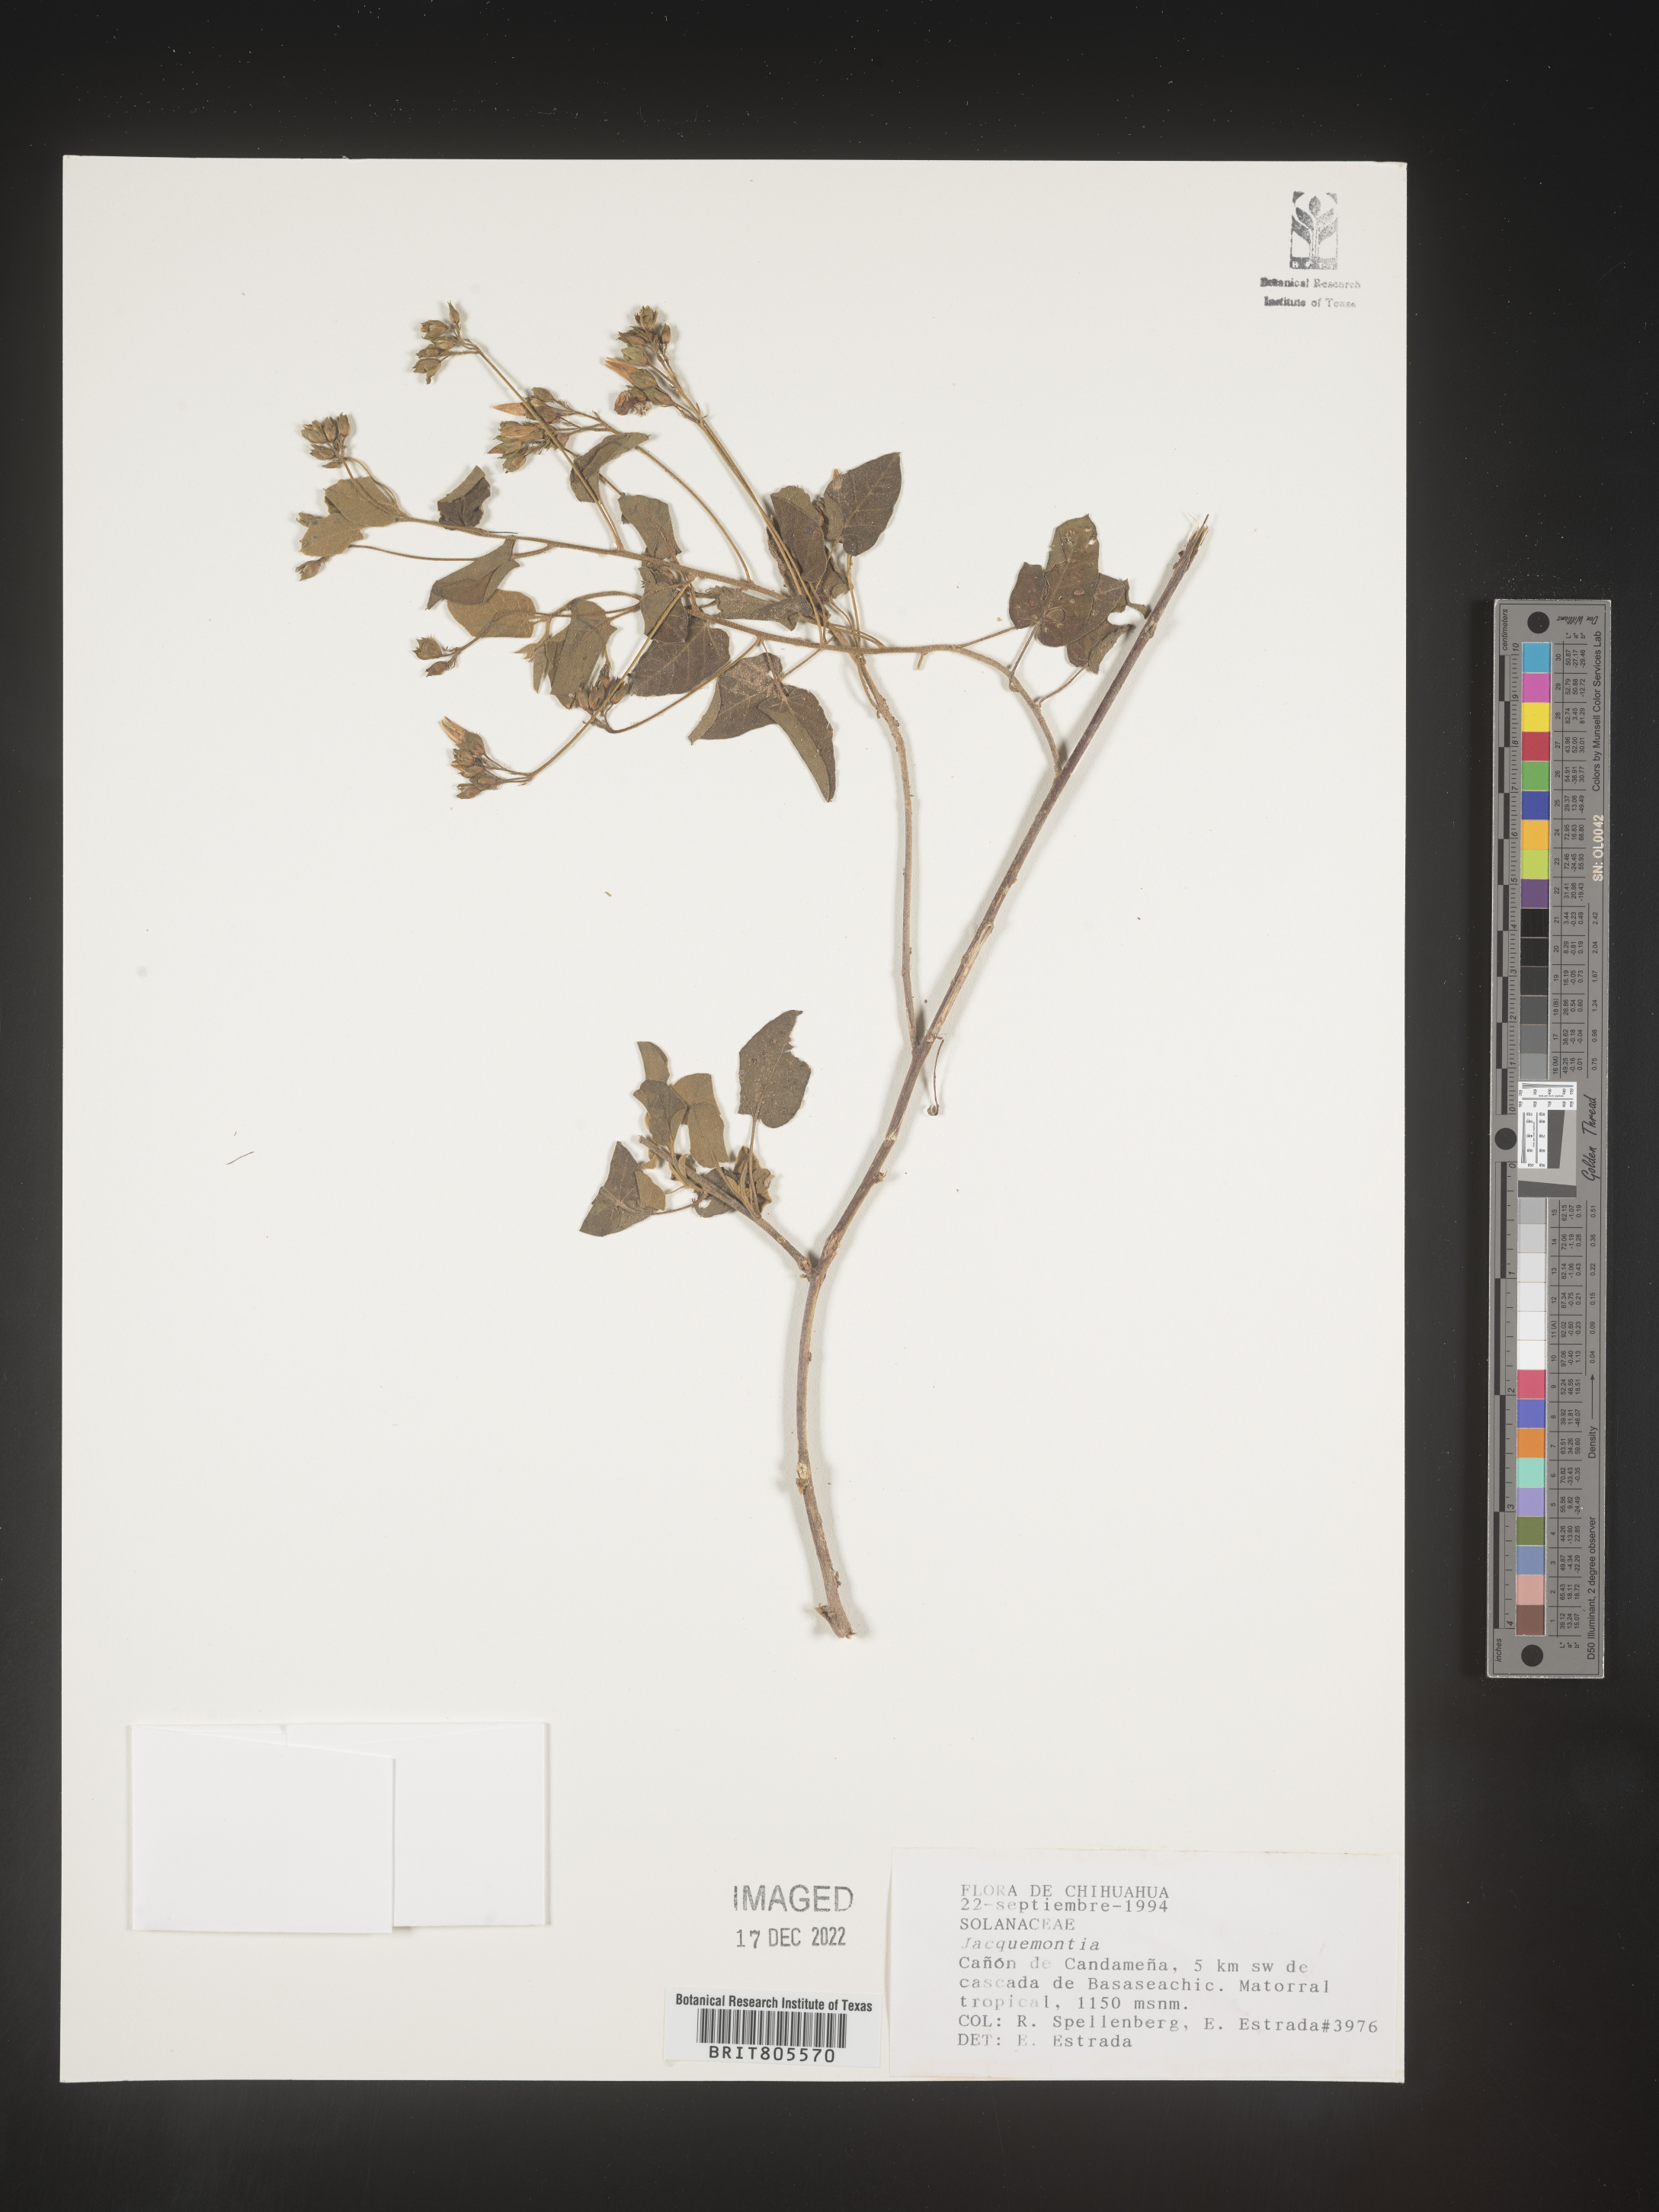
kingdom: Plantae
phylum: Tracheophyta
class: Magnoliopsida
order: Solanales
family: Convolvulaceae
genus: Jacquemontia
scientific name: Jacquemontia
